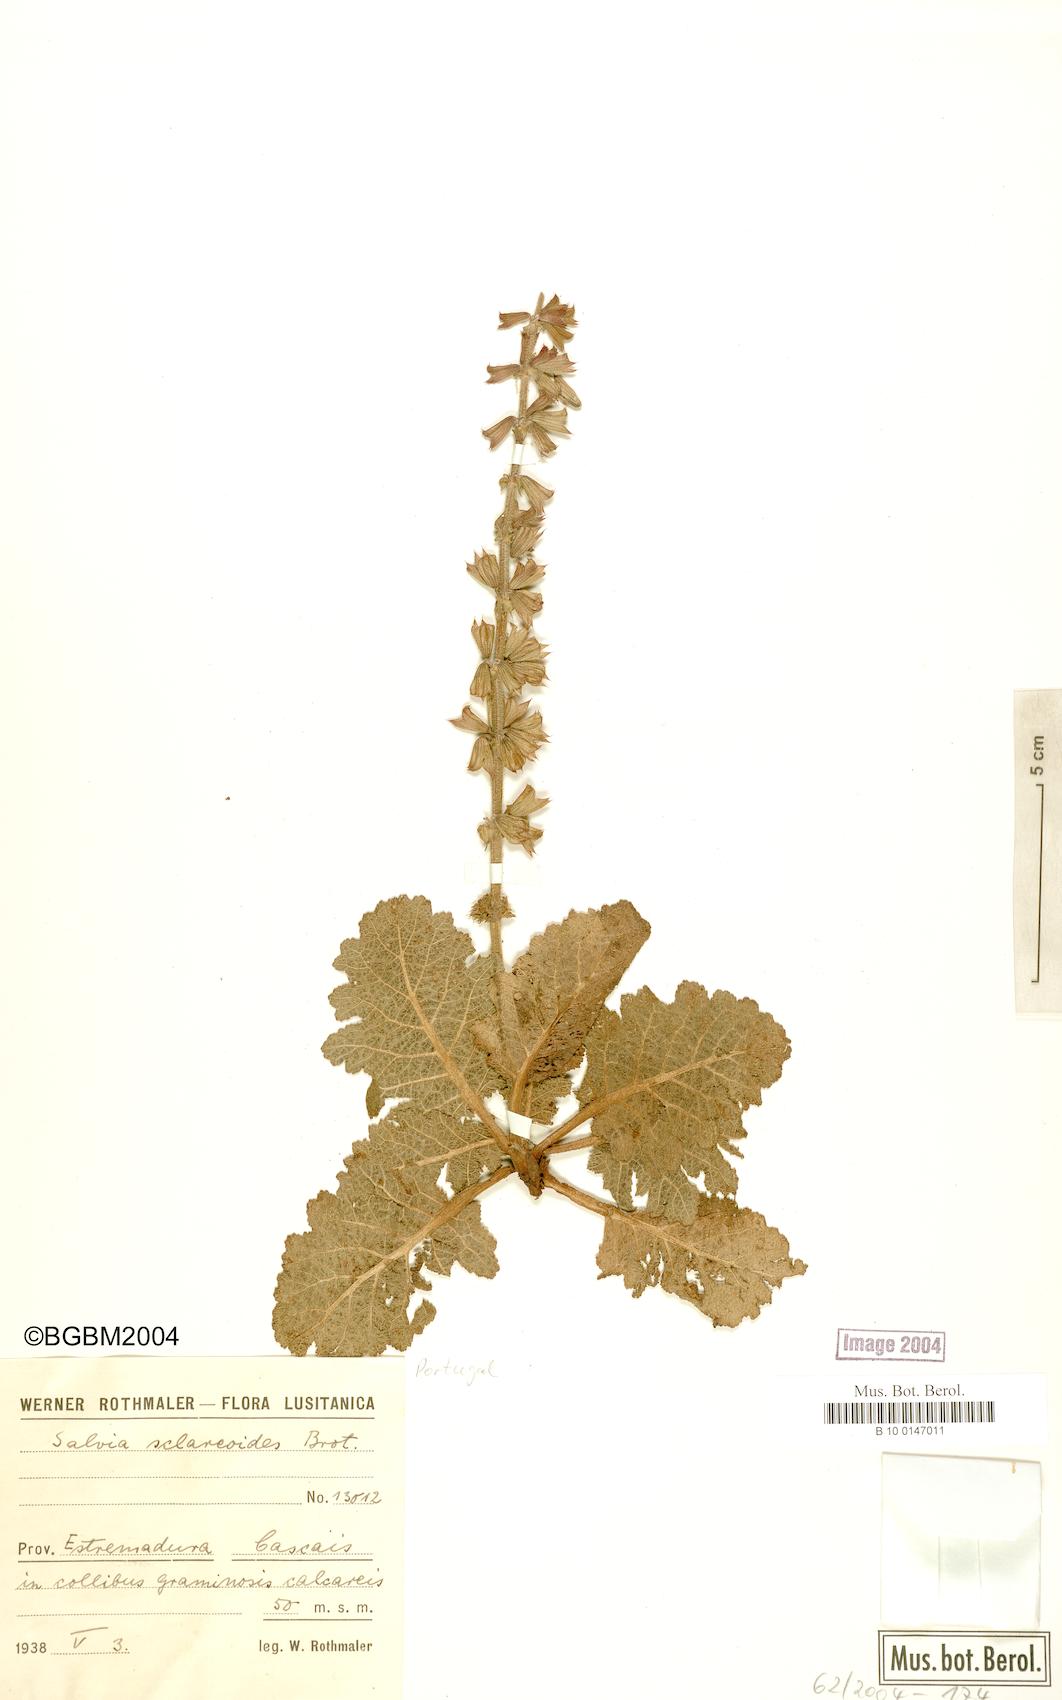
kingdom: Plantae
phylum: Tracheophyta
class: Magnoliopsida
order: Lamiales
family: Lamiaceae
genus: Salvia
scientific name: Salvia sclareoides
